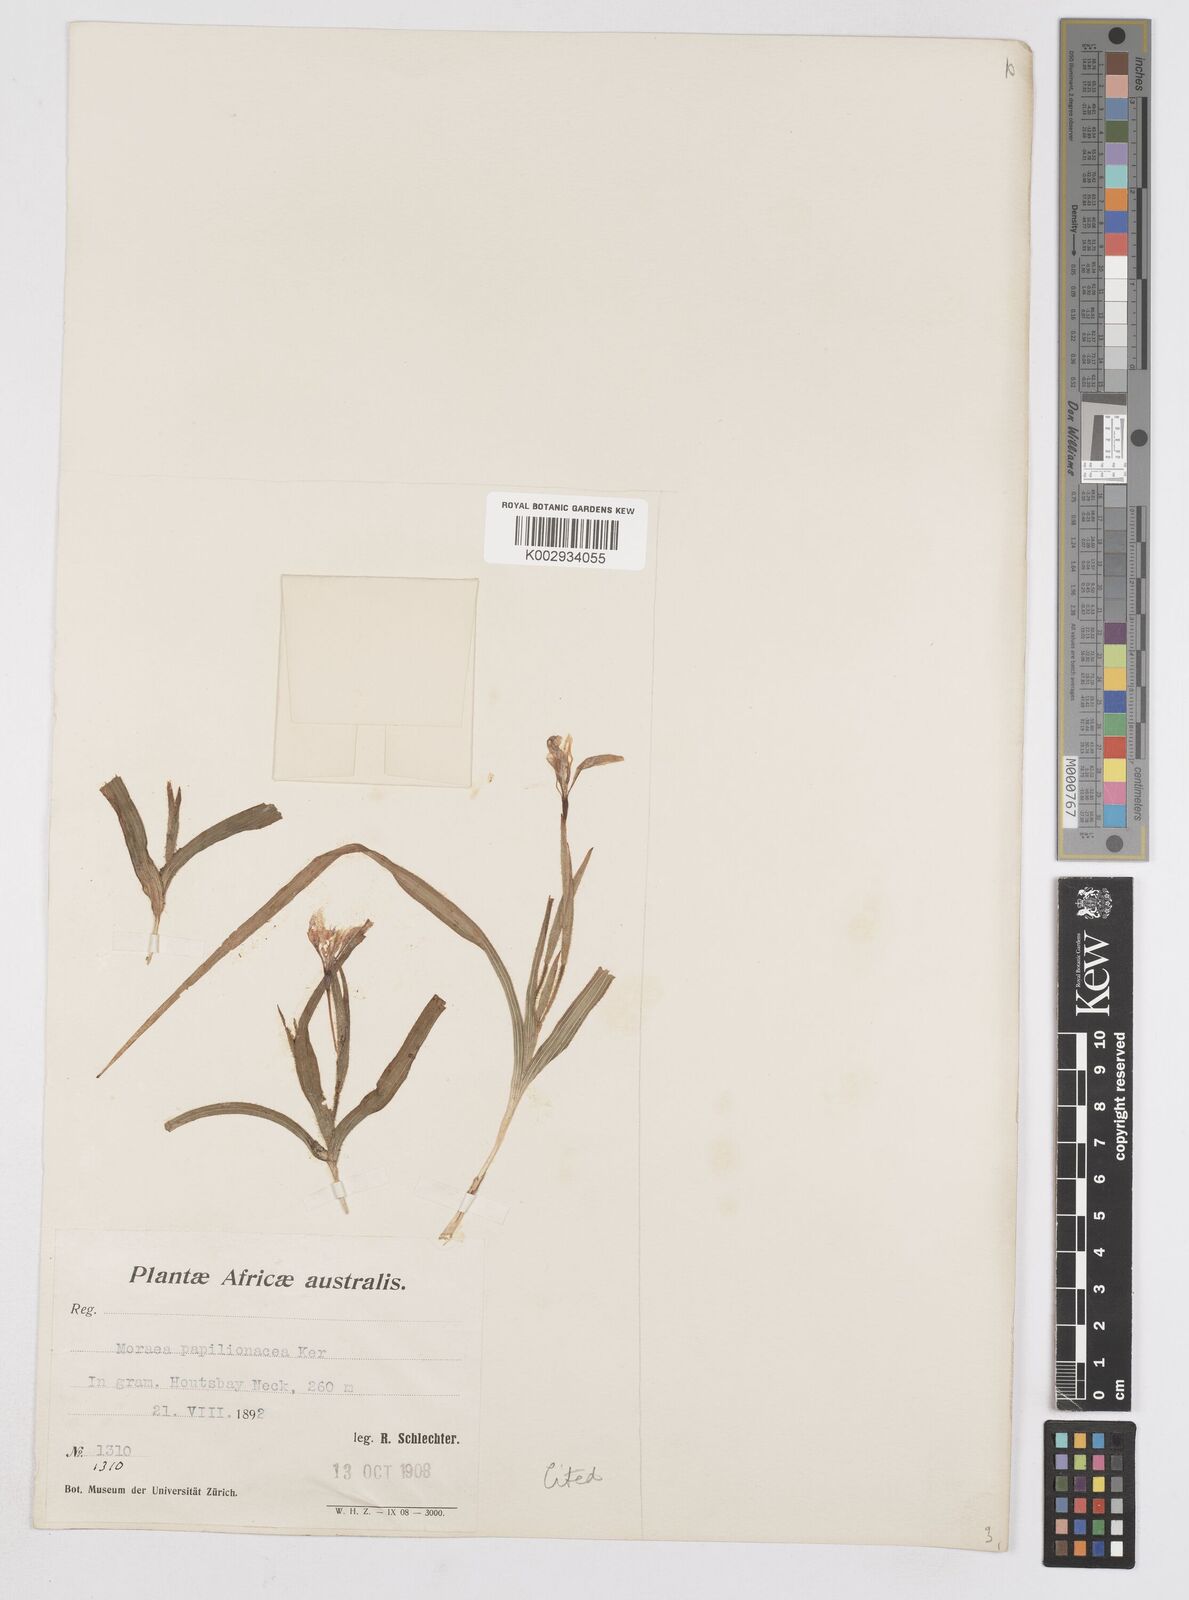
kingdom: Plantae
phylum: Tracheophyta
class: Liliopsida
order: Asparagales
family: Iridaceae
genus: Moraea
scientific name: Moraea papilionacea
